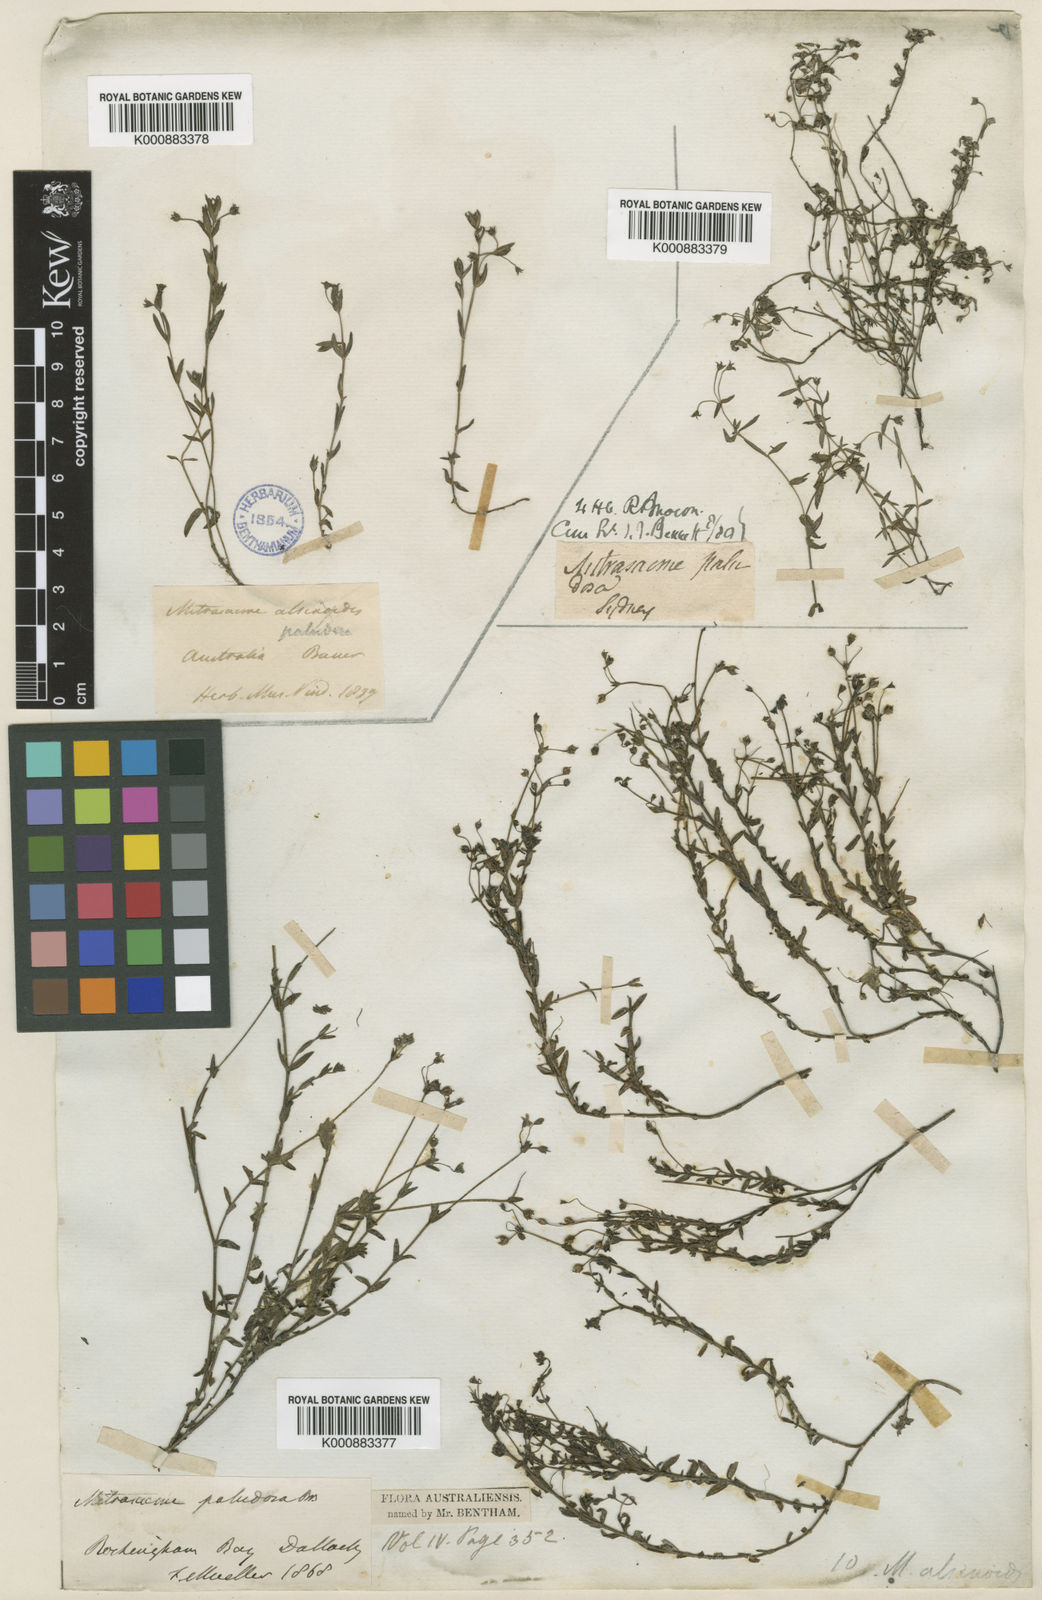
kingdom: Plantae
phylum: Tracheophyta
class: Magnoliopsida
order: Gentianales
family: Loganiaceae
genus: Mitrasacme
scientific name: Mitrasacme paludosa
